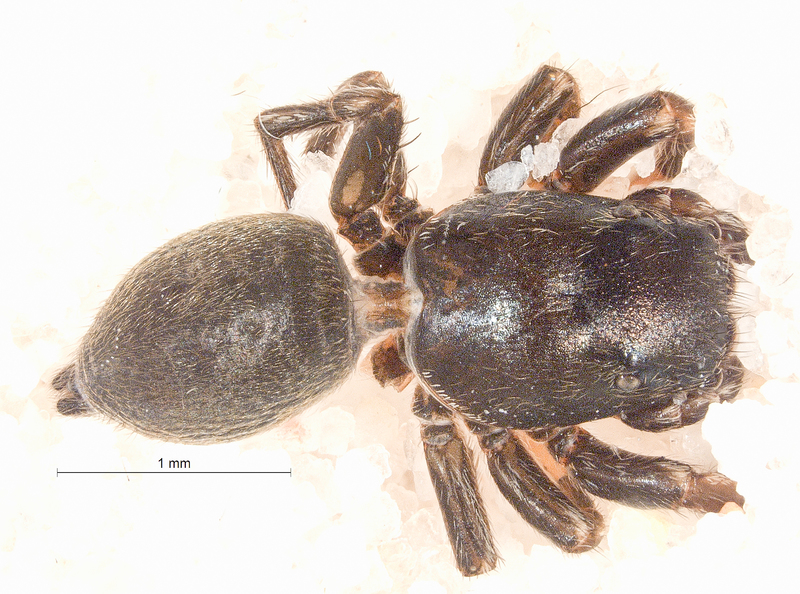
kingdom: Animalia
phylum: Arthropoda
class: Arachnida
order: Araneae
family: Salticidae
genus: Heliophanus
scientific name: Heliophanus flavipes
